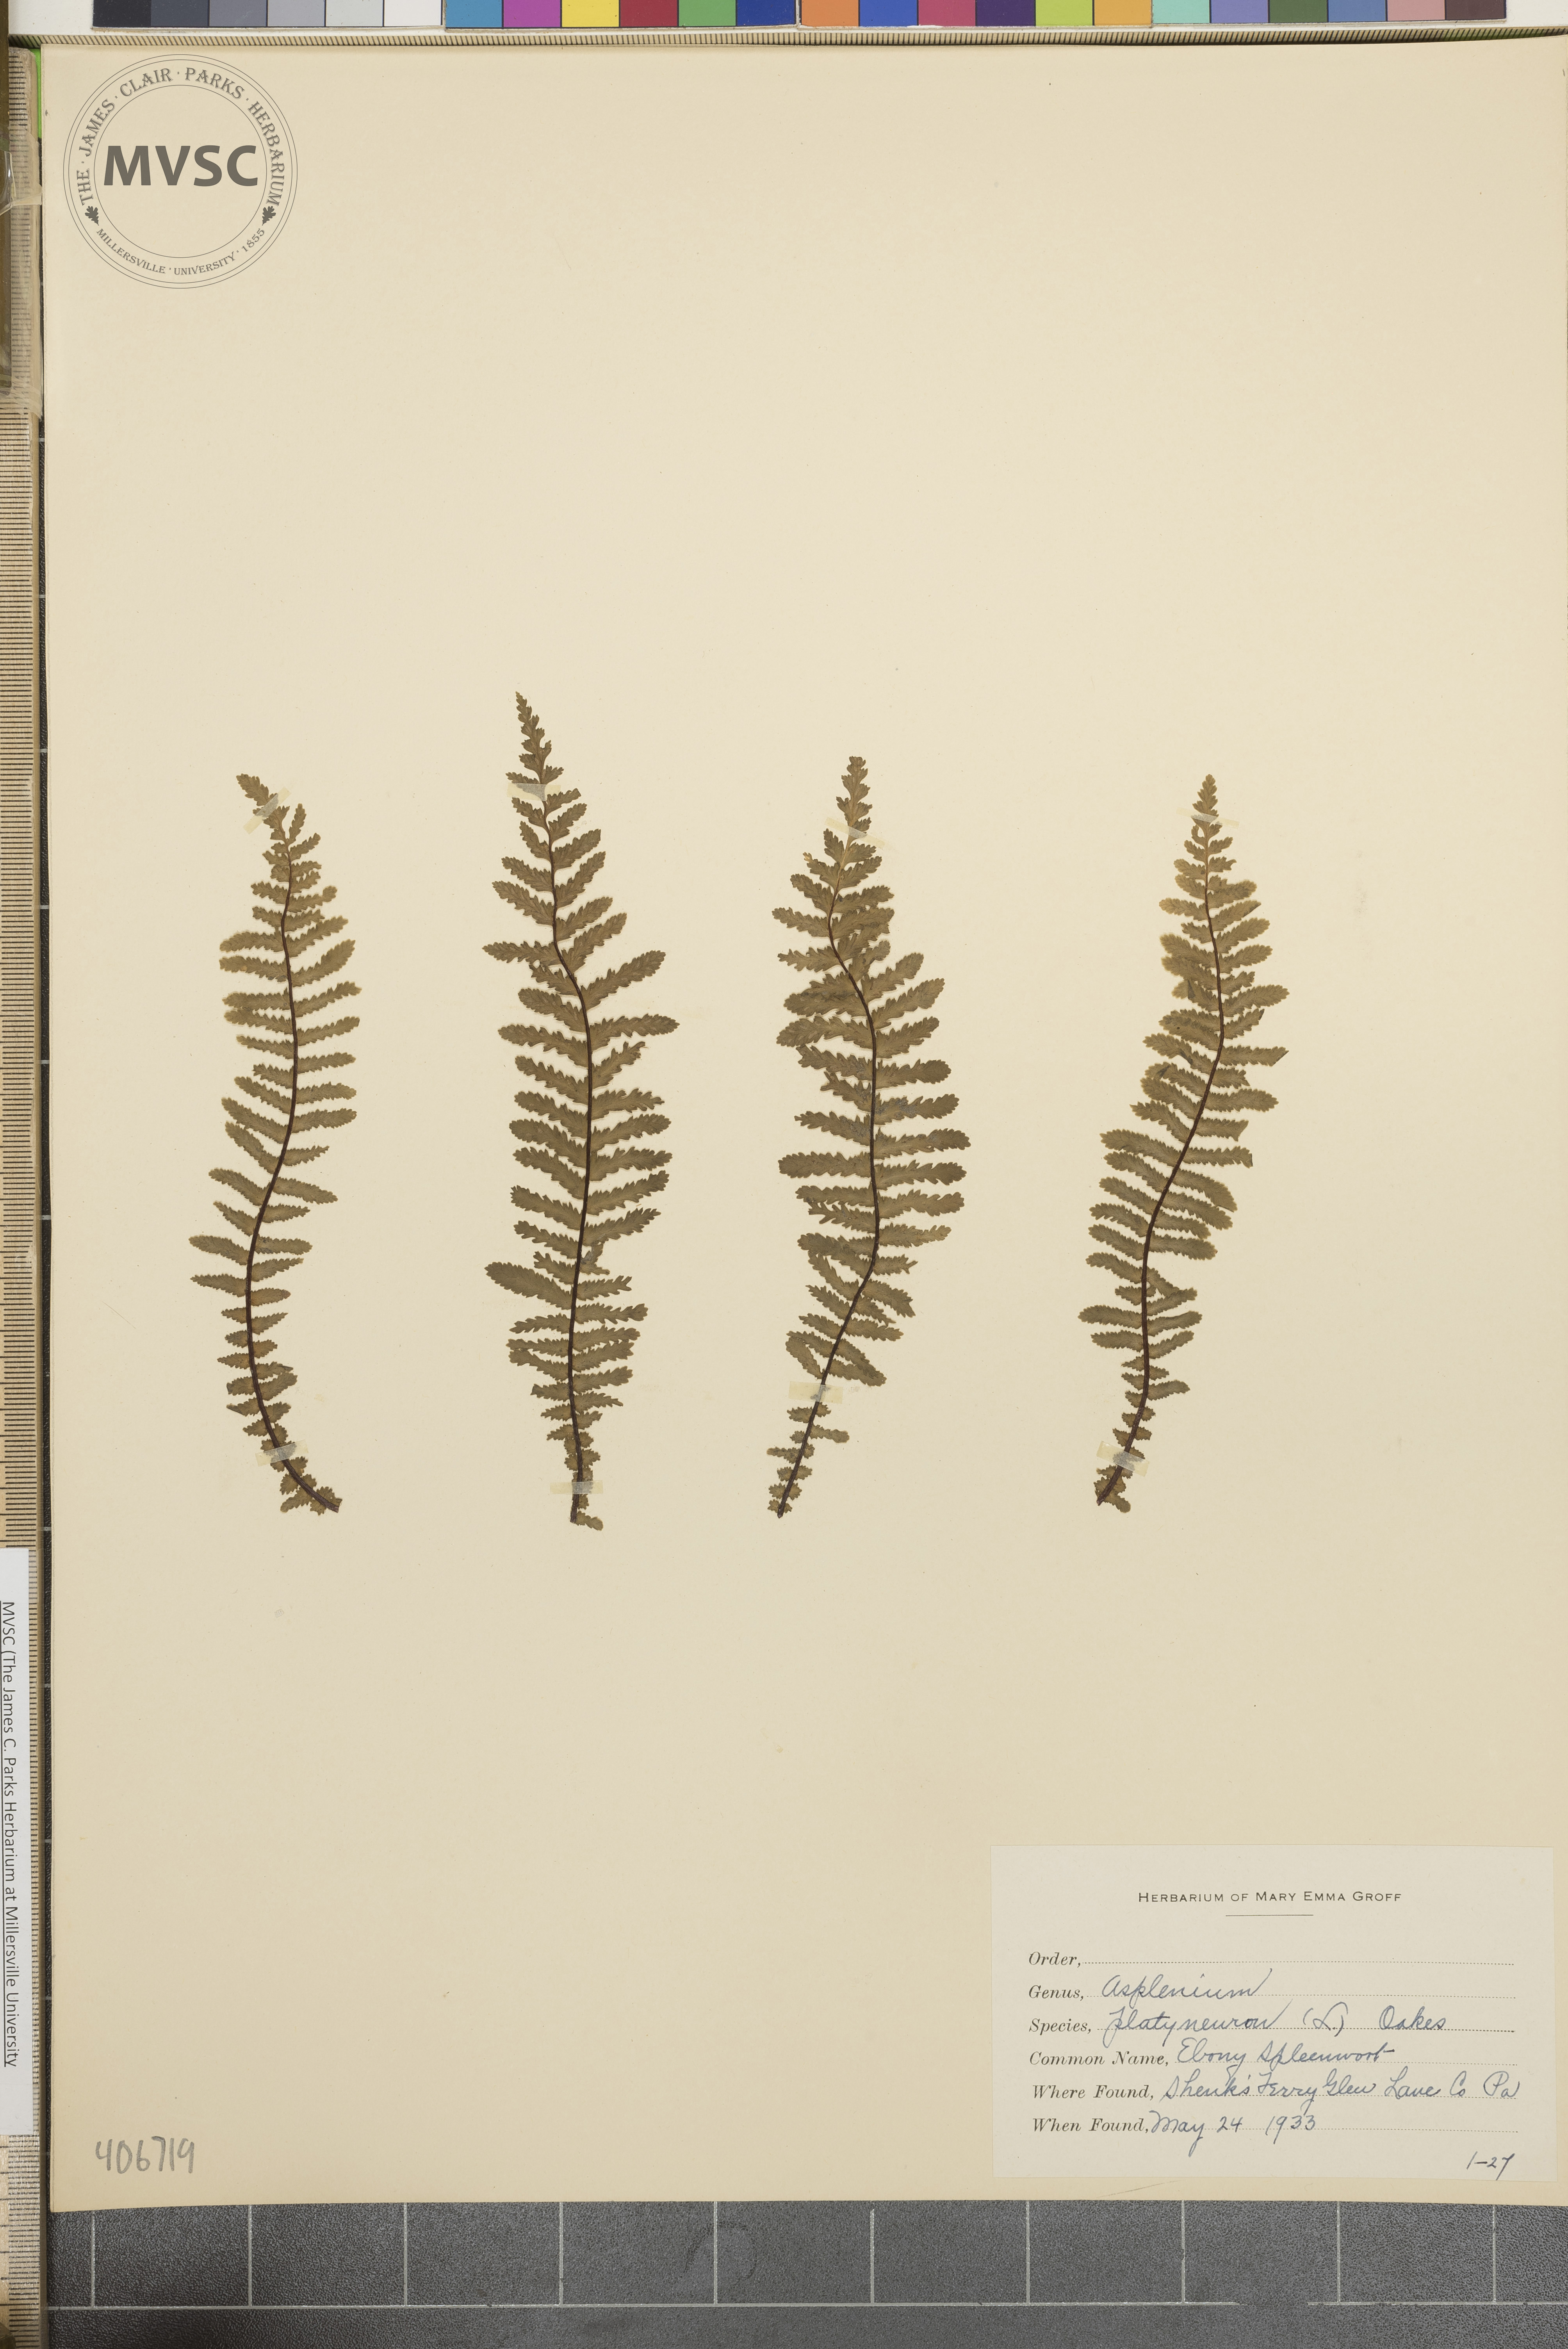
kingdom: Plantae
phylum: Tracheophyta
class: Polypodiopsida
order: Polypodiales
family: Aspleniaceae
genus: Asplenium
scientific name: Asplenium platyneuron
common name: Ebony spleenwort
